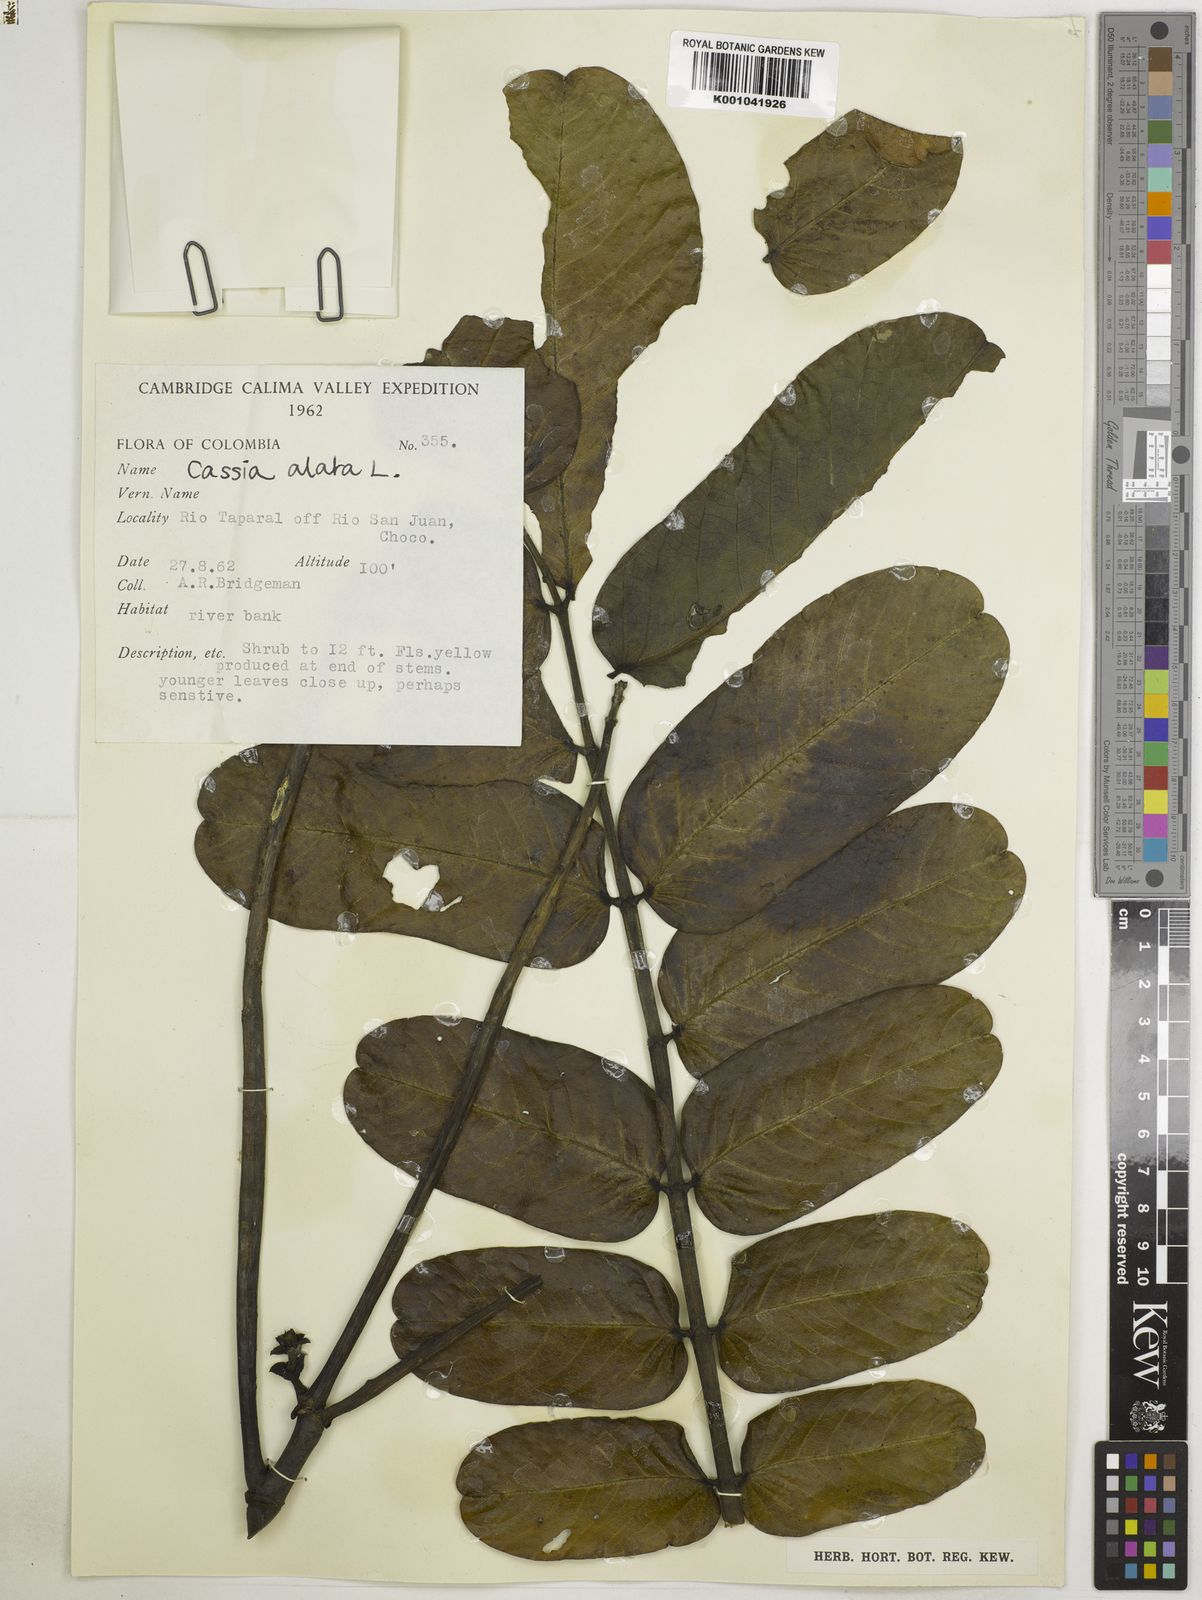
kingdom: Plantae
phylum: Tracheophyta
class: Magnoliopsida
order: Fabales
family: Fabaceae
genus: Senna
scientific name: Senna alata
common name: Emperor's candlesticks
